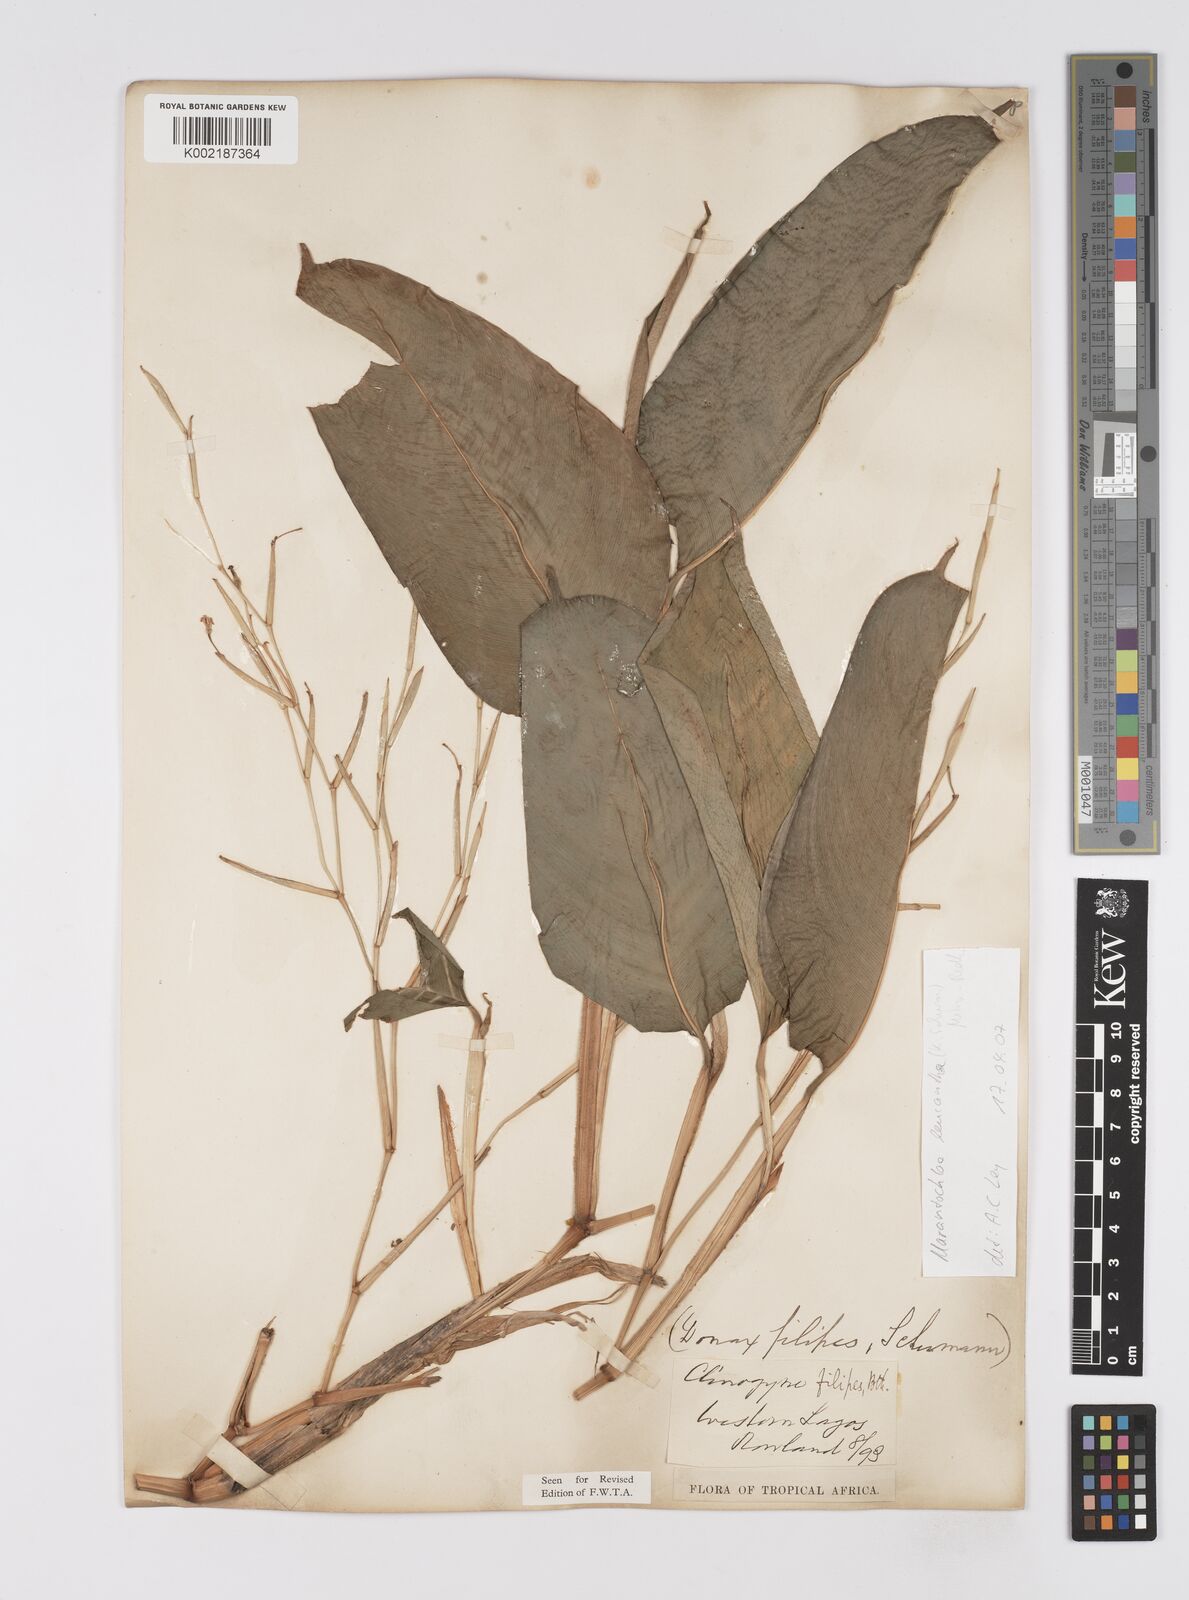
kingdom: Plantae
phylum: Tracheophyta
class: Liliopsida
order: Zingiberales
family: Marantaceae
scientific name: Marantaceae
